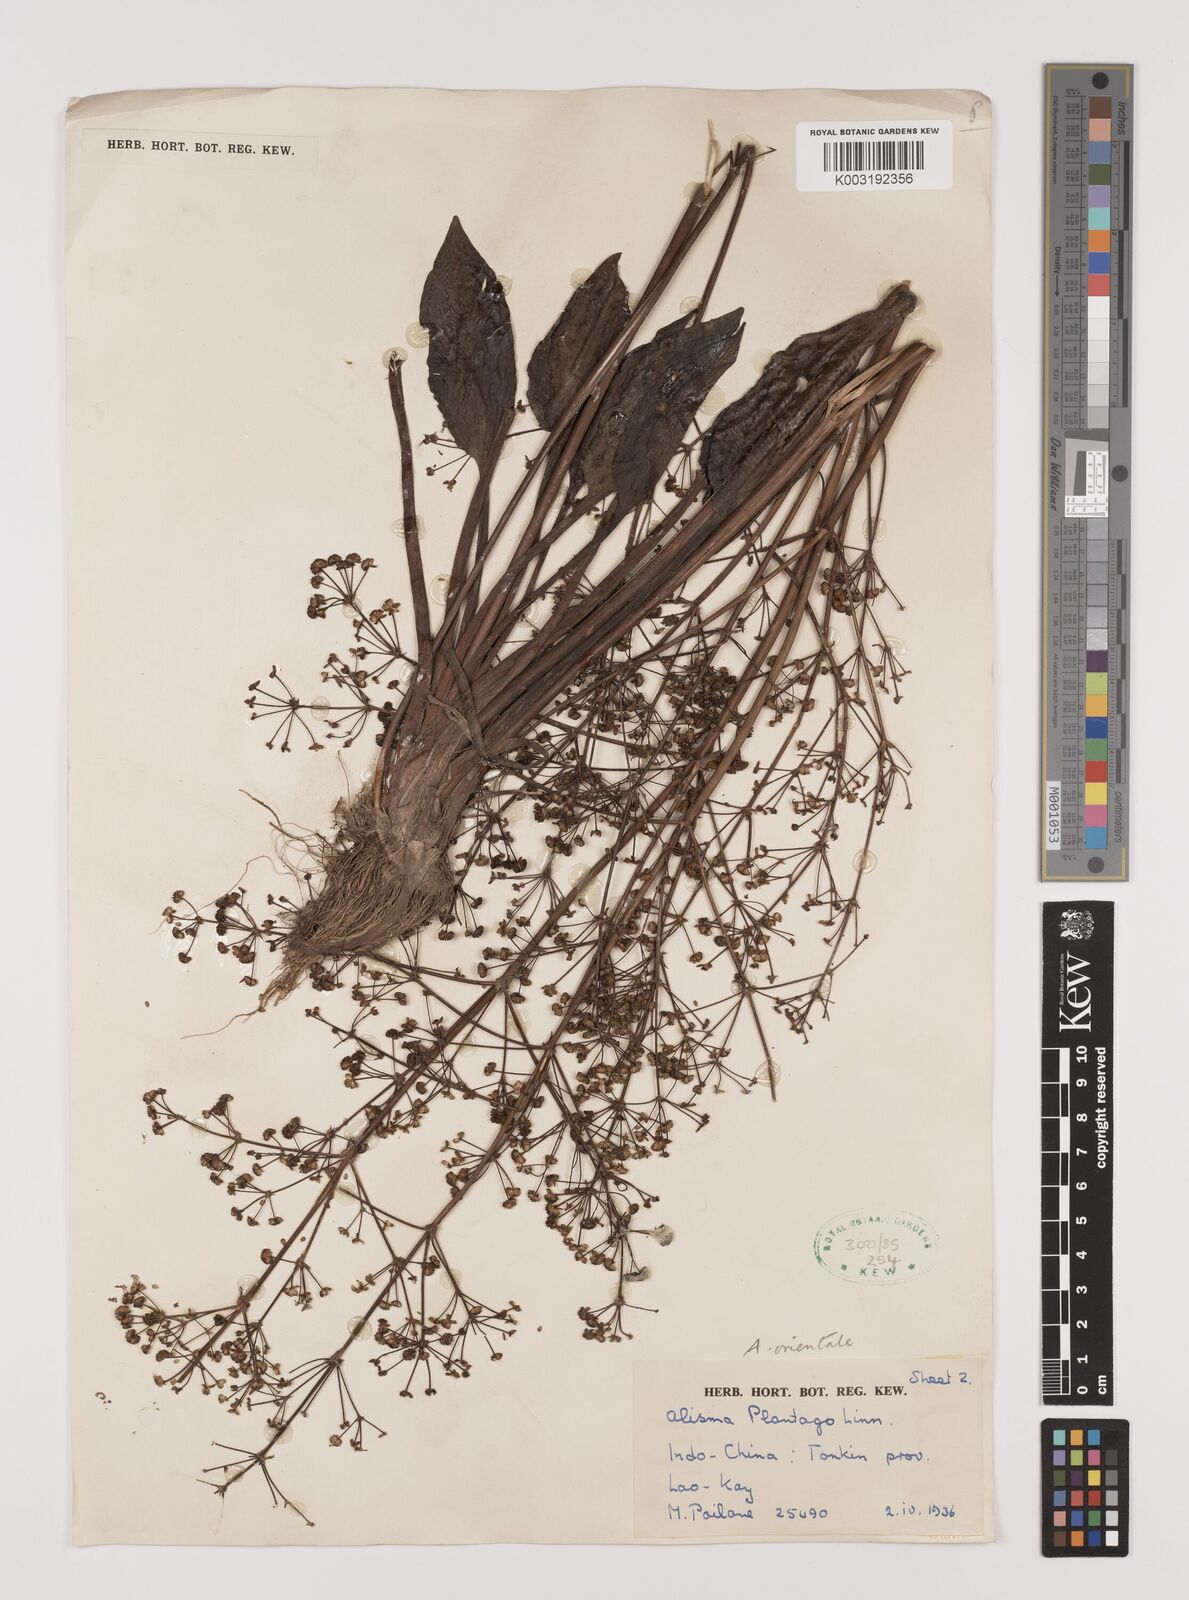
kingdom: Plantae
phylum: Tracheophyta
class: Liliopsida
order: Alismatales
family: Alismataceae
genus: Alisma
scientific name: Alisma plantago-aquatica
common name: Water-plantain
